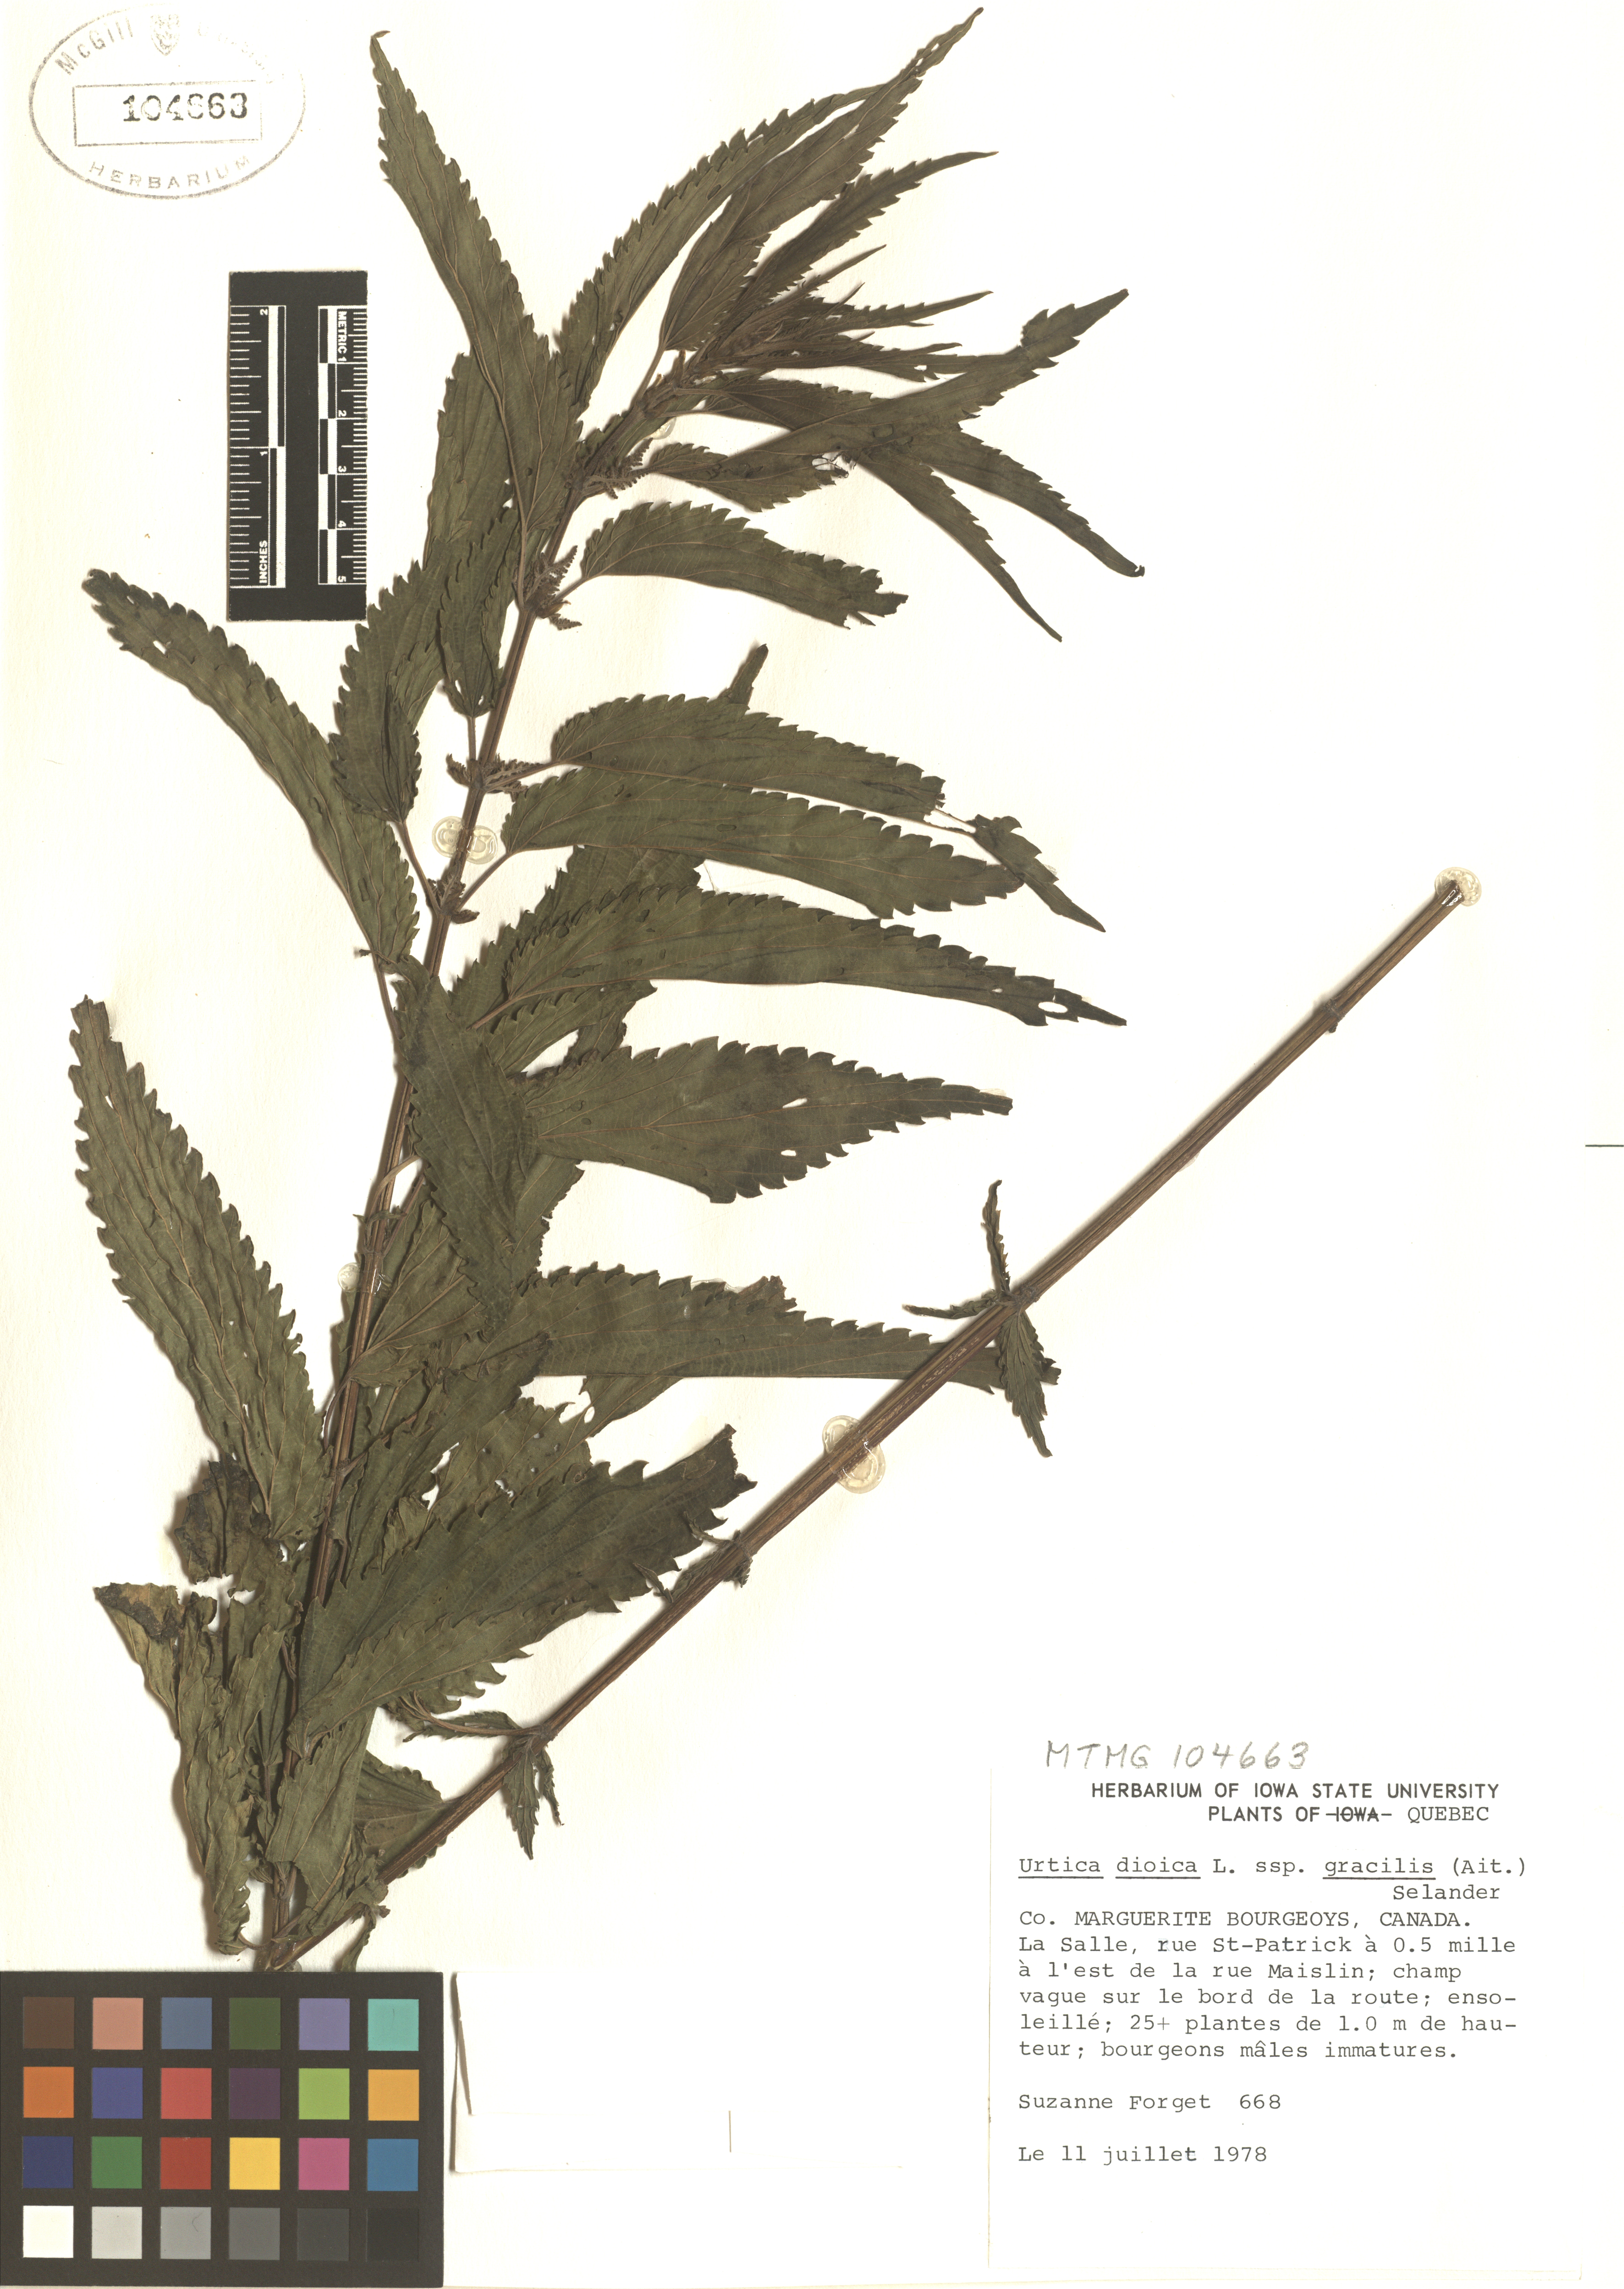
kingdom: Plantae
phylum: Tracheophyta
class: Magnoliopsida
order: Rosales
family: Urticaceae
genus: Urtica
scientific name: Urtica gracilis
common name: Slender stinging nettle
